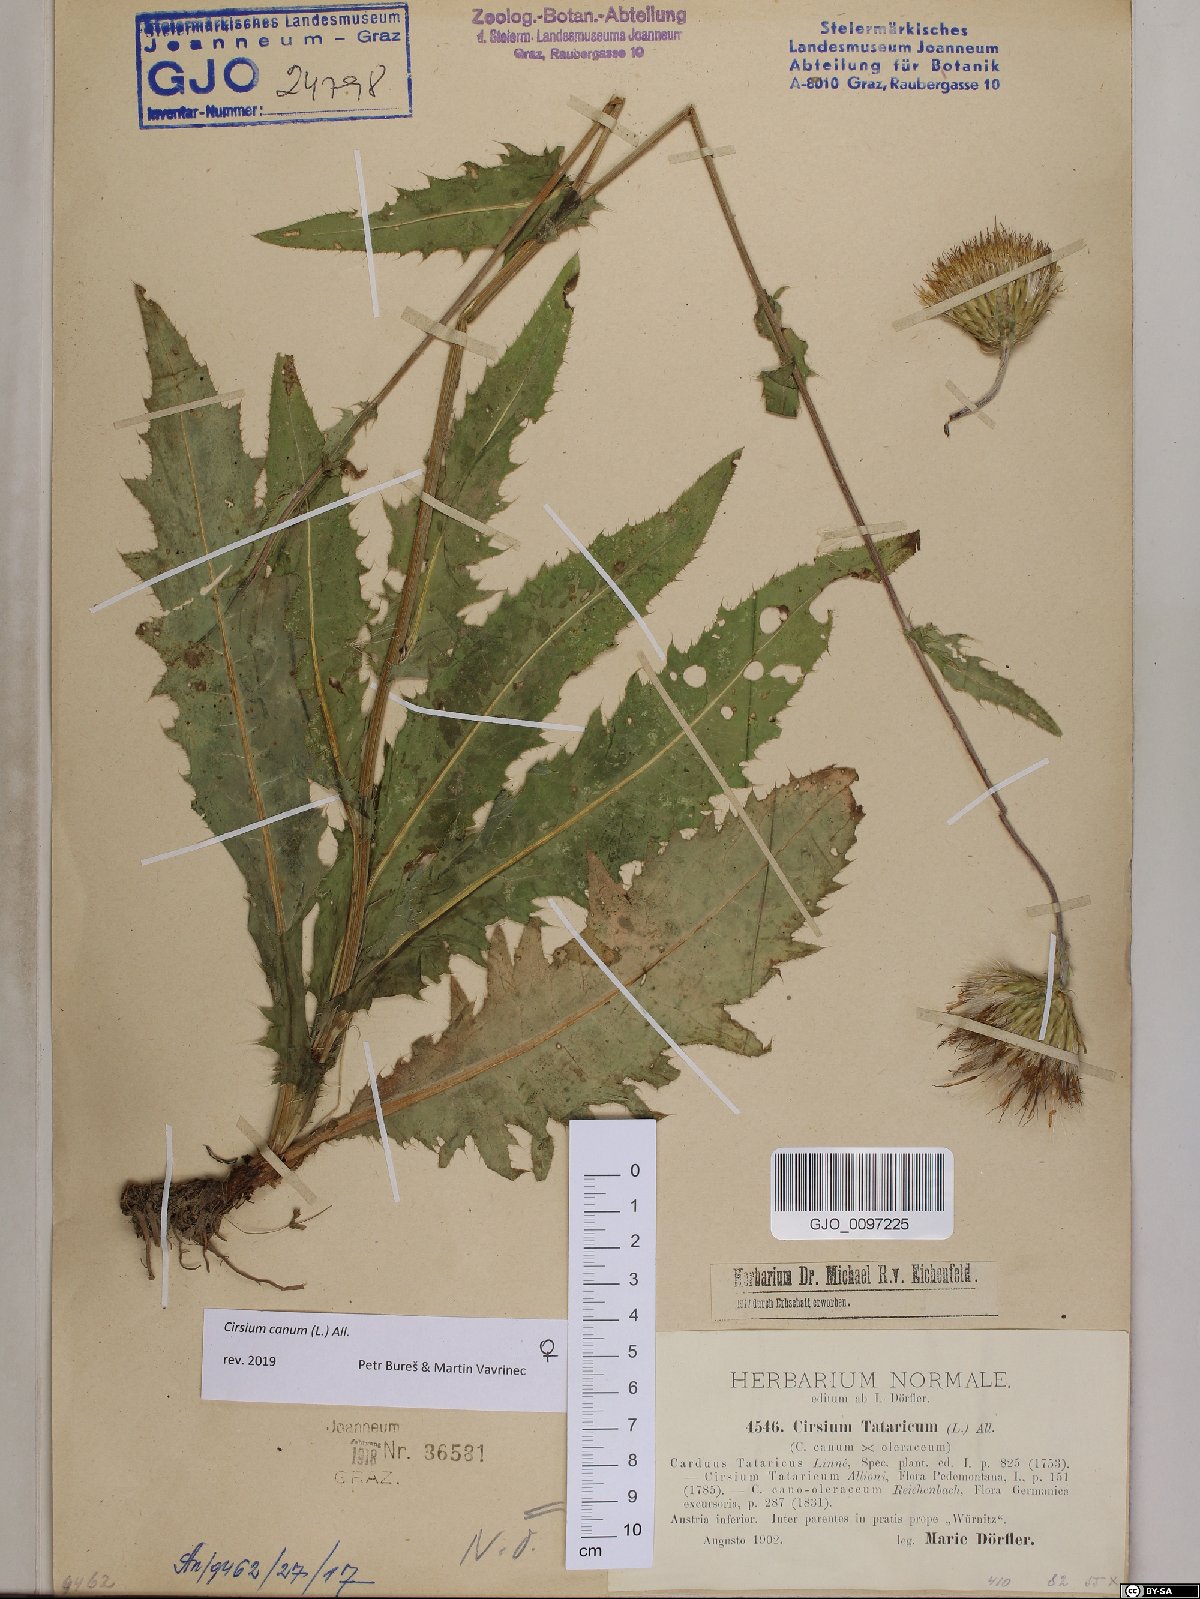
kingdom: Plantae
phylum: Tracheophyta
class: Magnoliopsida
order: Asterales
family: Asteraceae
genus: Cirsium
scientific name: Cirsium canum
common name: Queen anne's thistle
